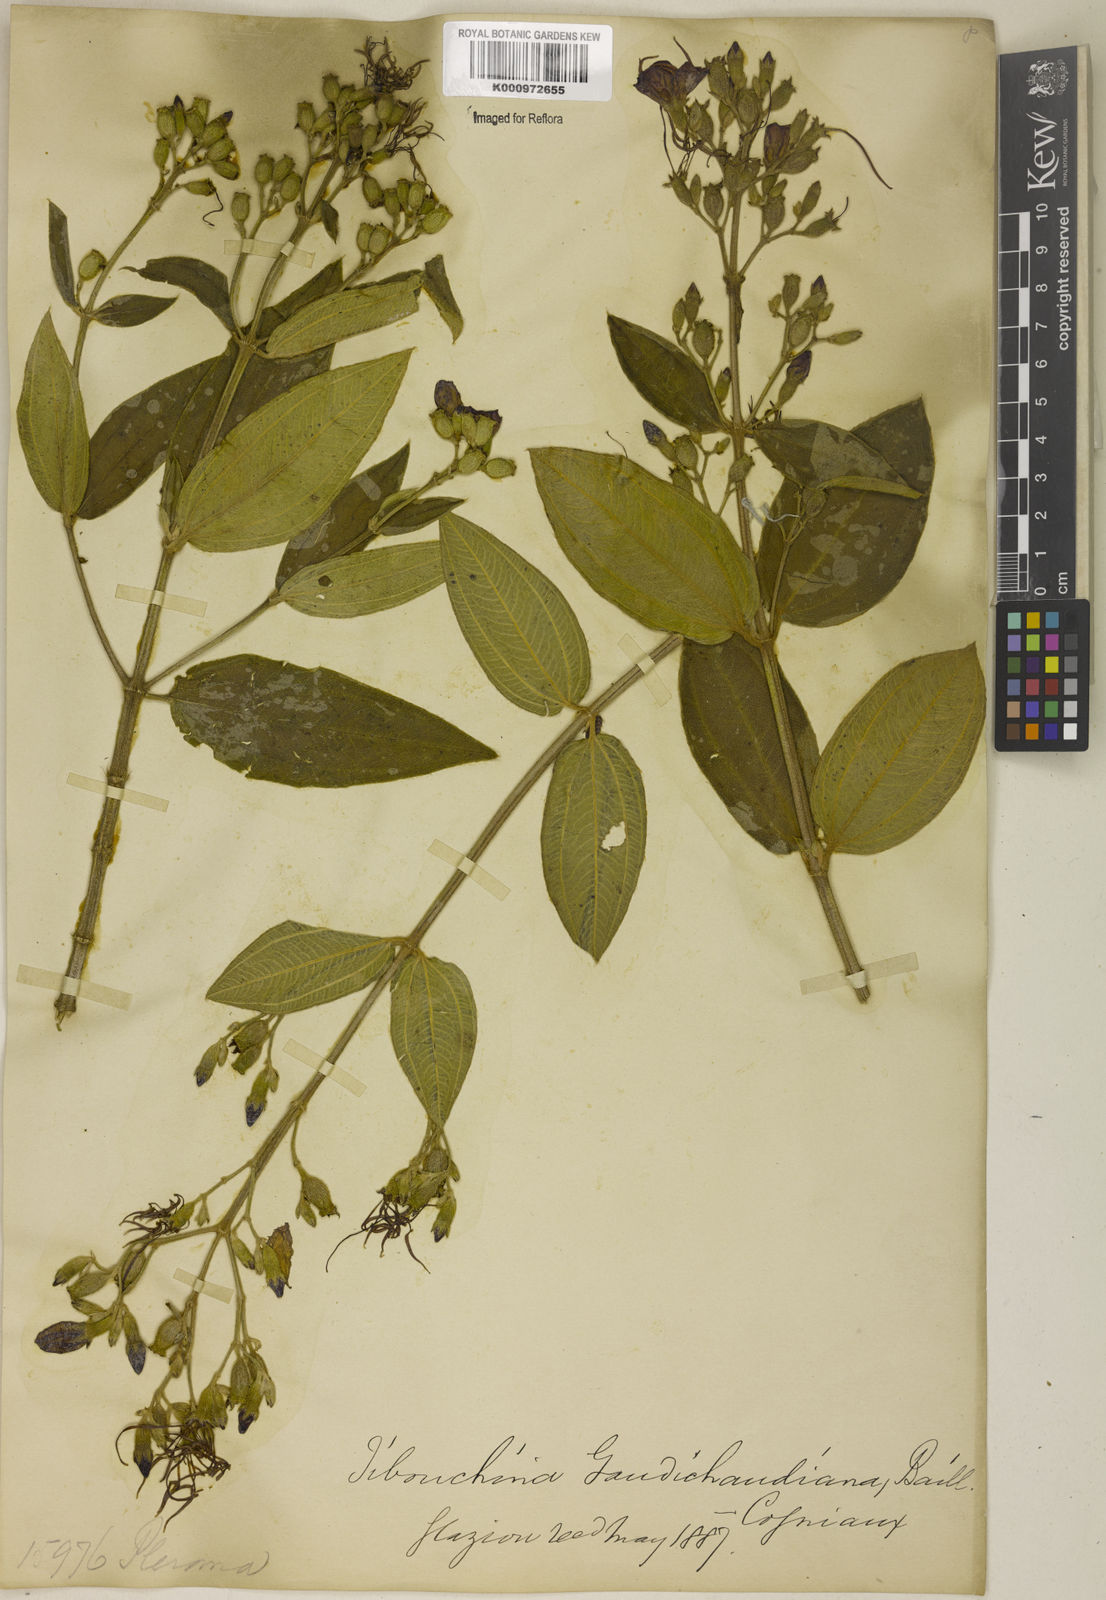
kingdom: Plantae
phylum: Tracheophyta
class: Magnoliopsida
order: Myrtales
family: Melastomataceae
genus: Pleroma
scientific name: Pleroma gaudichaudianum
